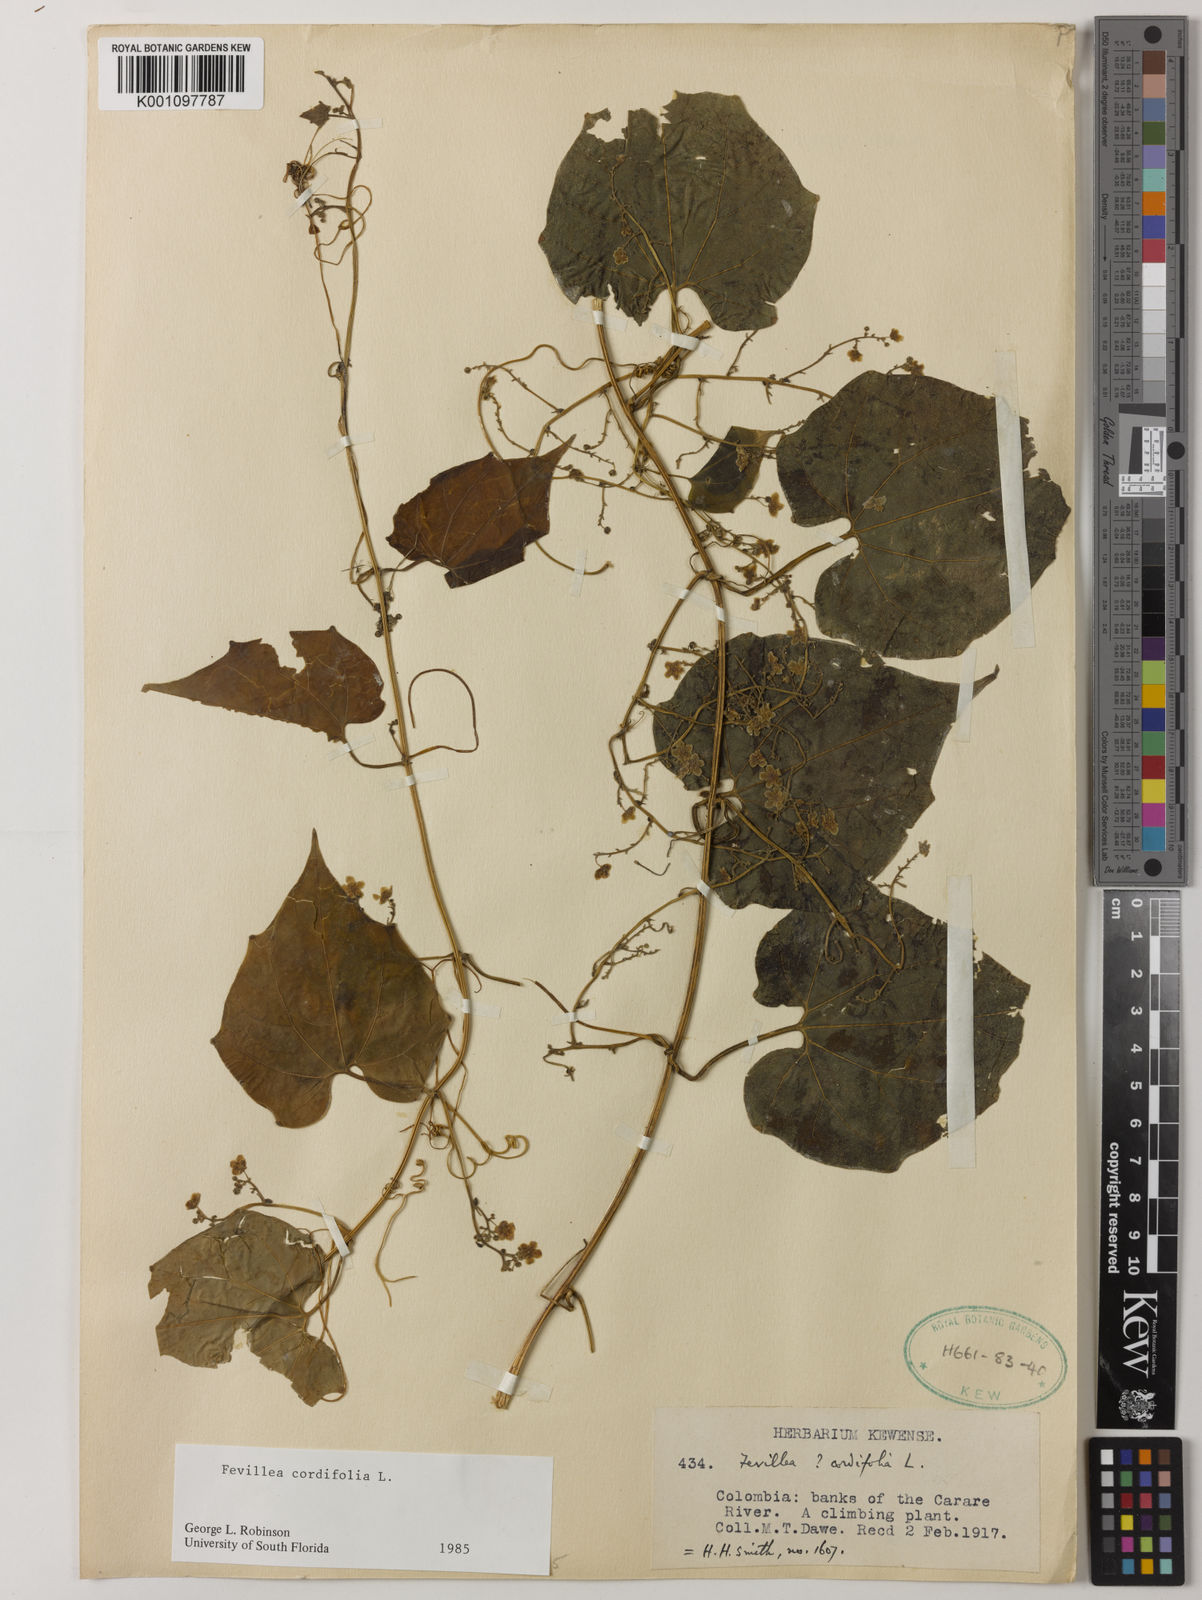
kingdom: Plantae
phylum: Tracheophyta
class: Magnoliopsida
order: Cucurbitales
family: Cucurbitaceae
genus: Fevillea
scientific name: Fevillea cordifolia
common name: Antidote-vine
